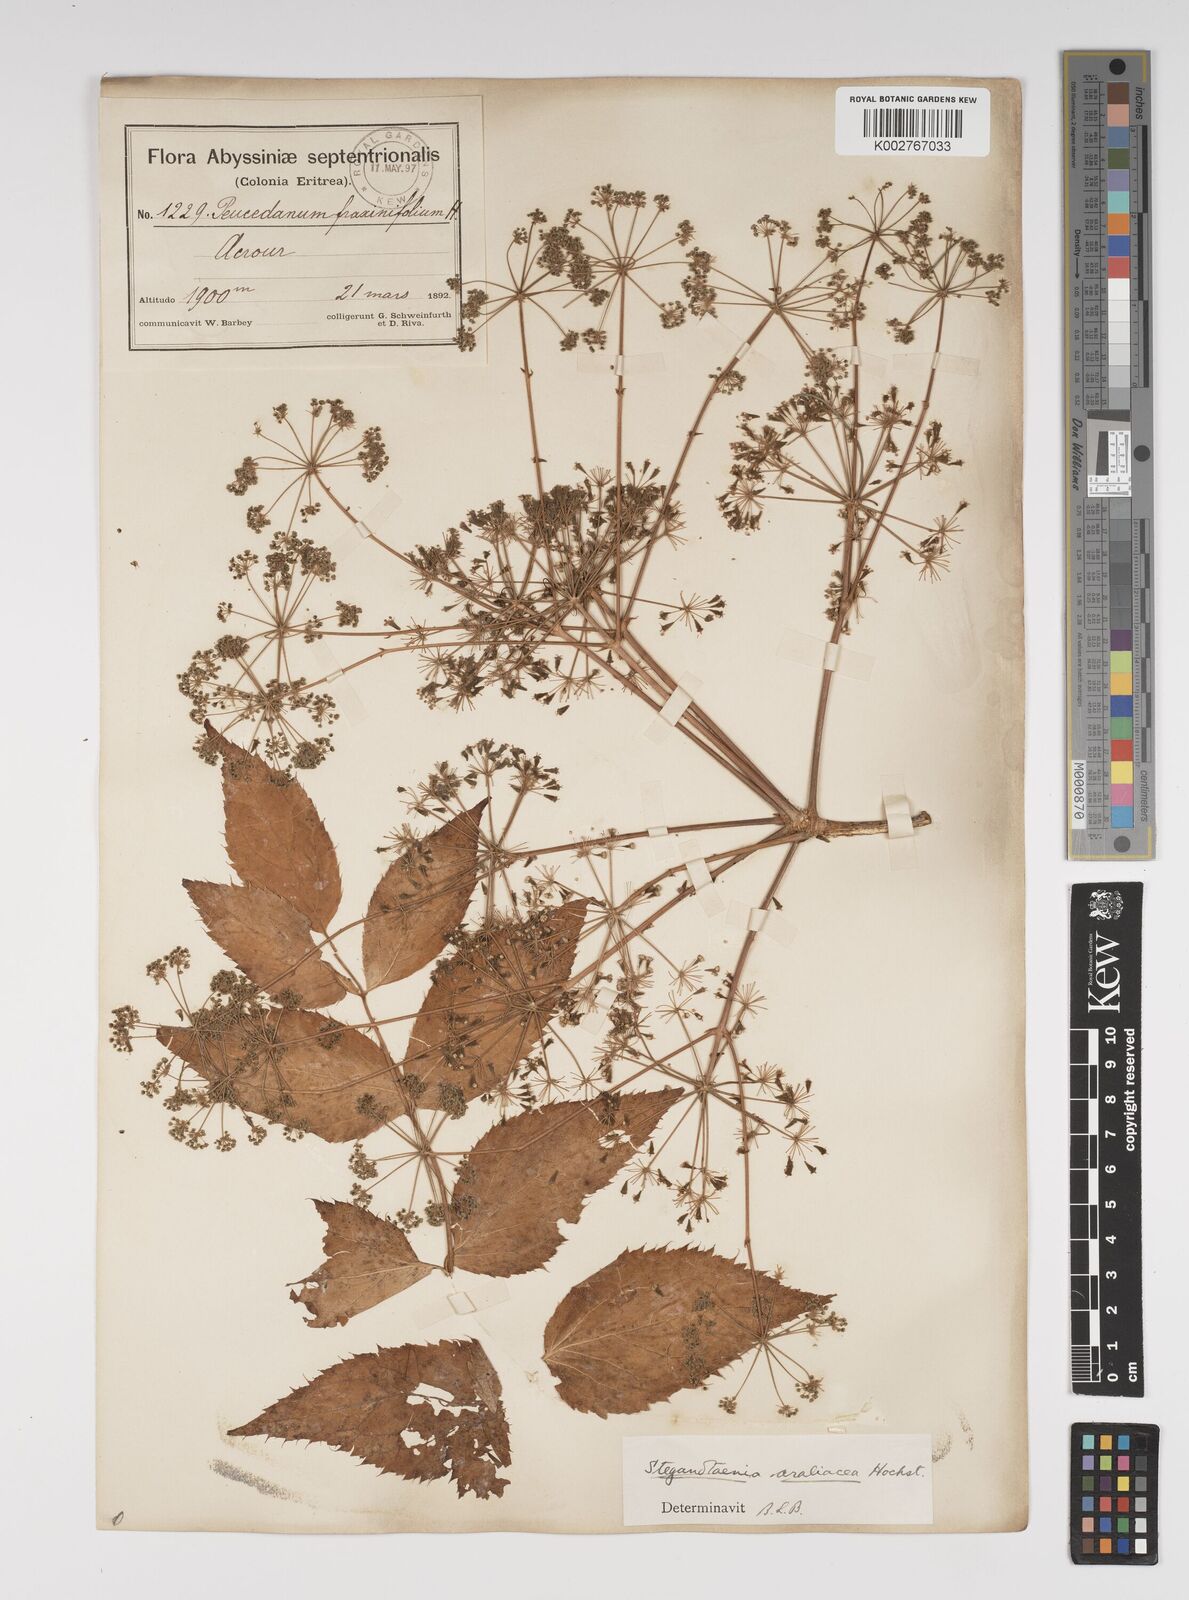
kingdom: Plantae
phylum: Tracheophyta
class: Magnoliopsida
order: Apiales
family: Apiaceae
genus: Steganotaenia
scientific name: Steganotaenia
